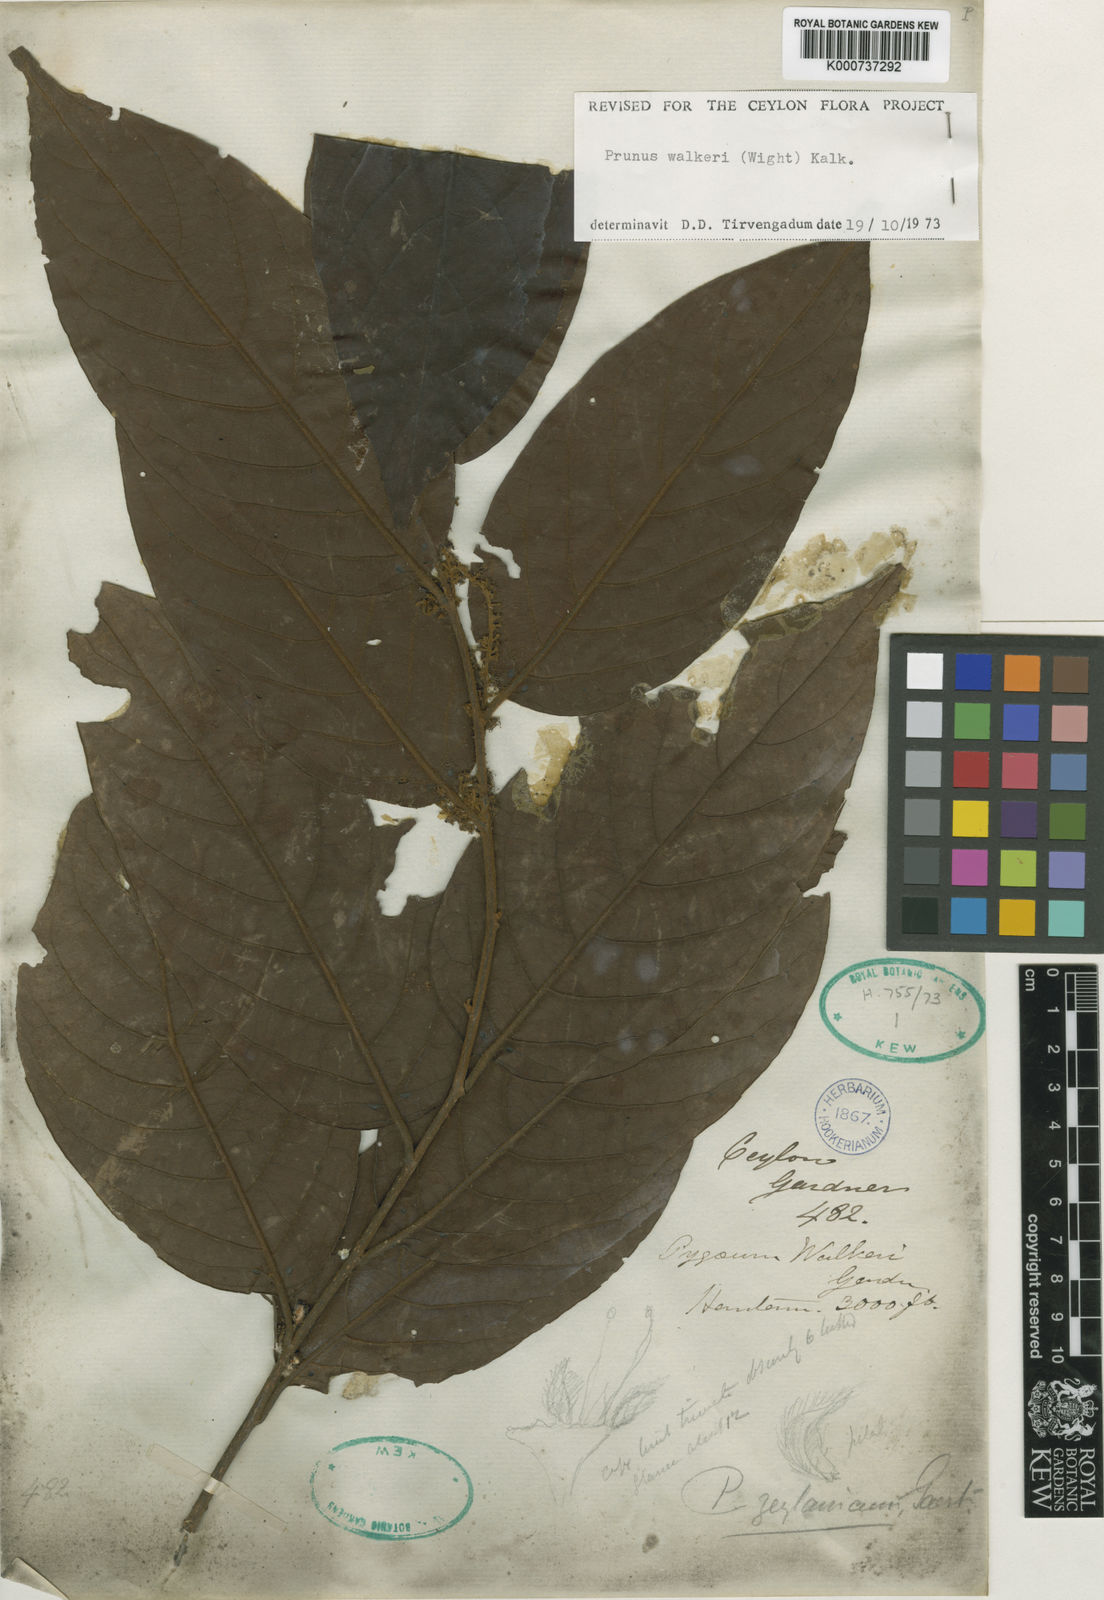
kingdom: Plantae
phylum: Tracheophyta
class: Magnoliopsida
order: Rosales
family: Rosaceae
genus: Prunus
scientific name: Prunus walkeri
